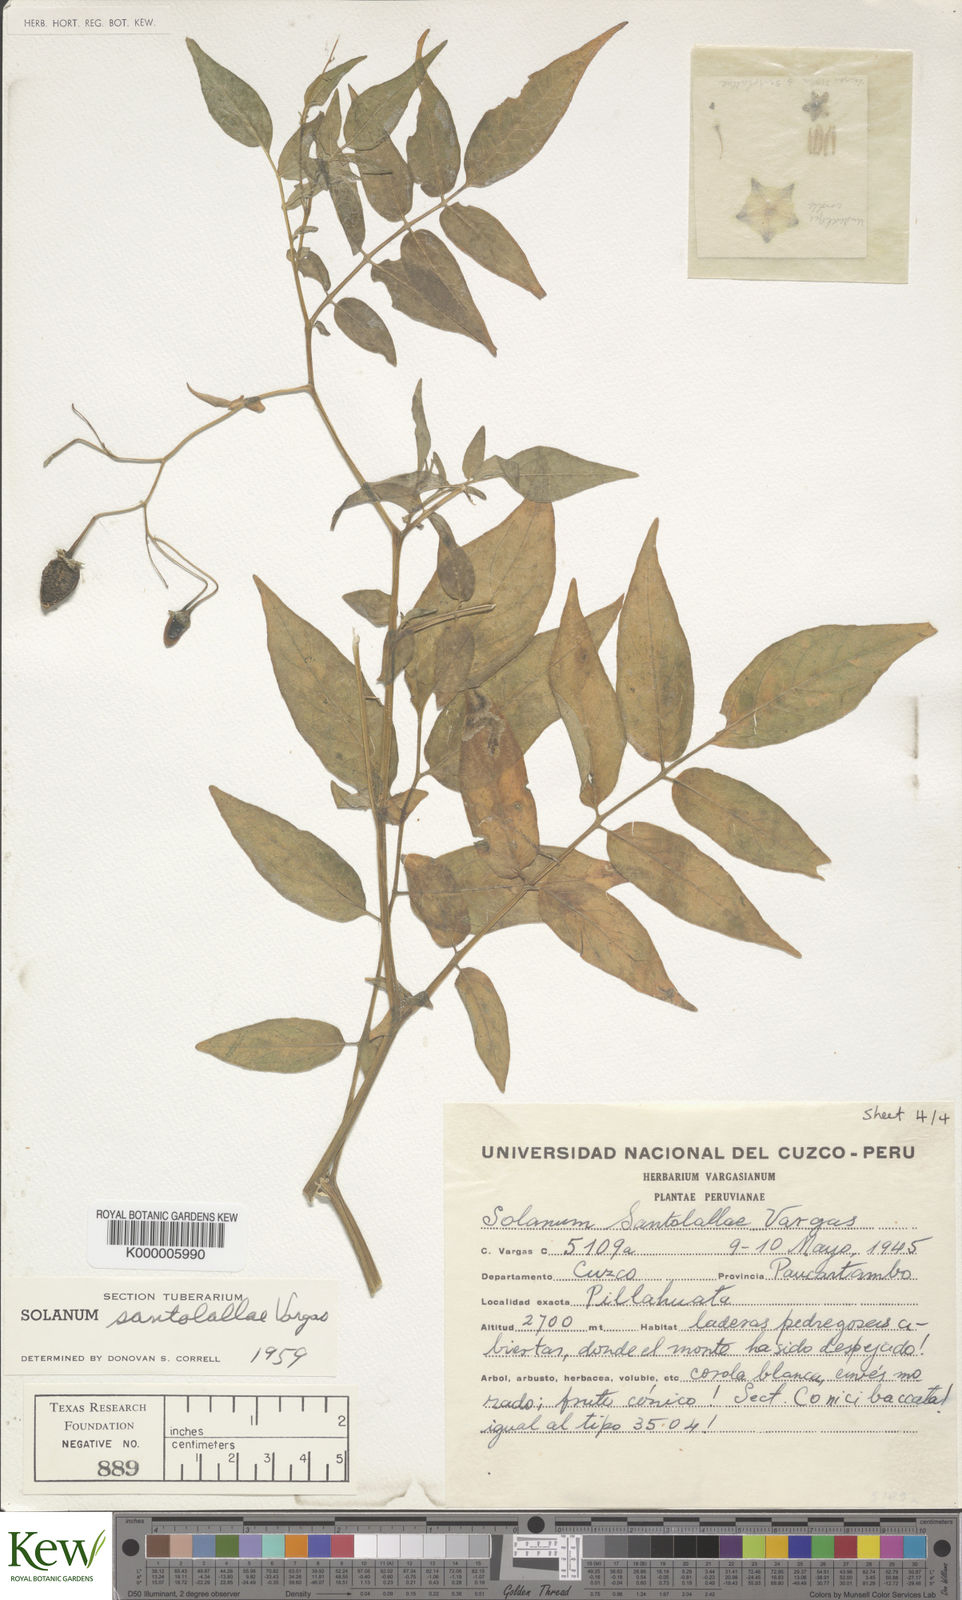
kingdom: Plantae
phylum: Tracheophyta
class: Magnoliopsida
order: Solanales
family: Solanaceae
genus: Solanum
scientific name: Solanum violaceimarmoratum
